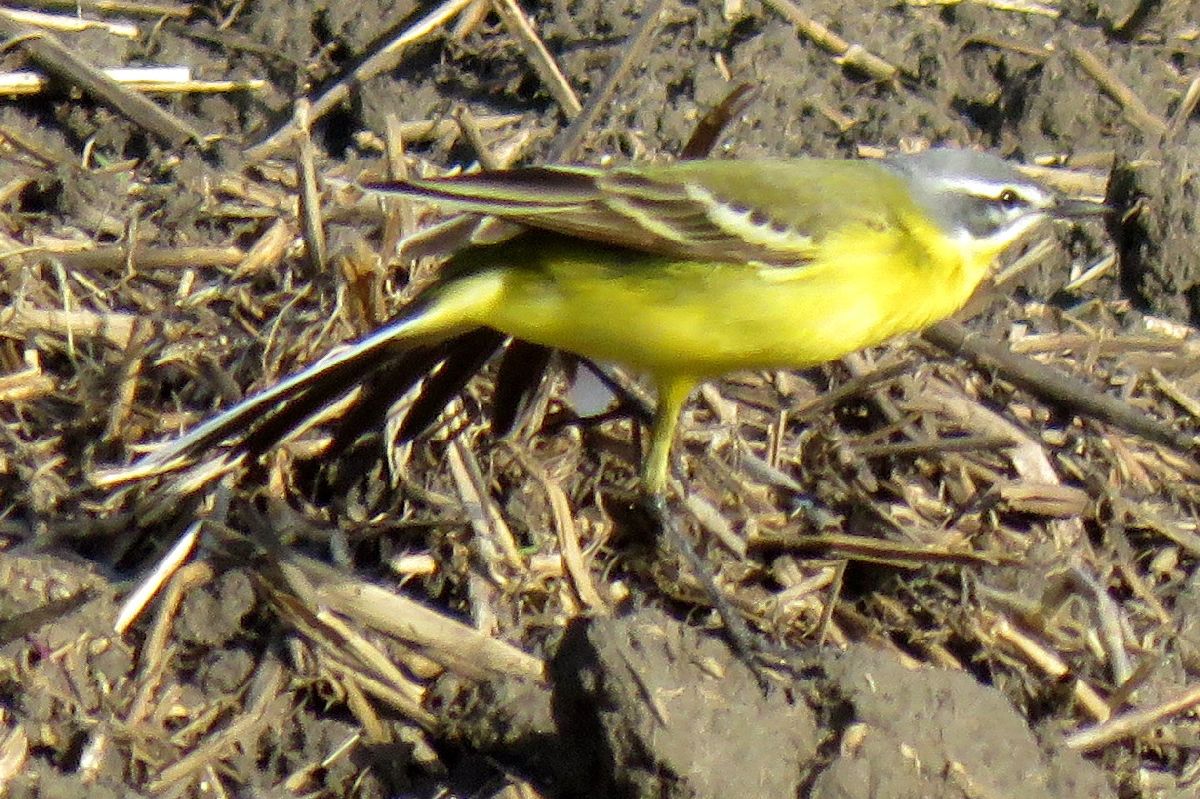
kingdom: Animalia
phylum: Chordata
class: Aves
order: Passeriformes
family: Motacillidae
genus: Motacilla
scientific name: Motacilla flava
